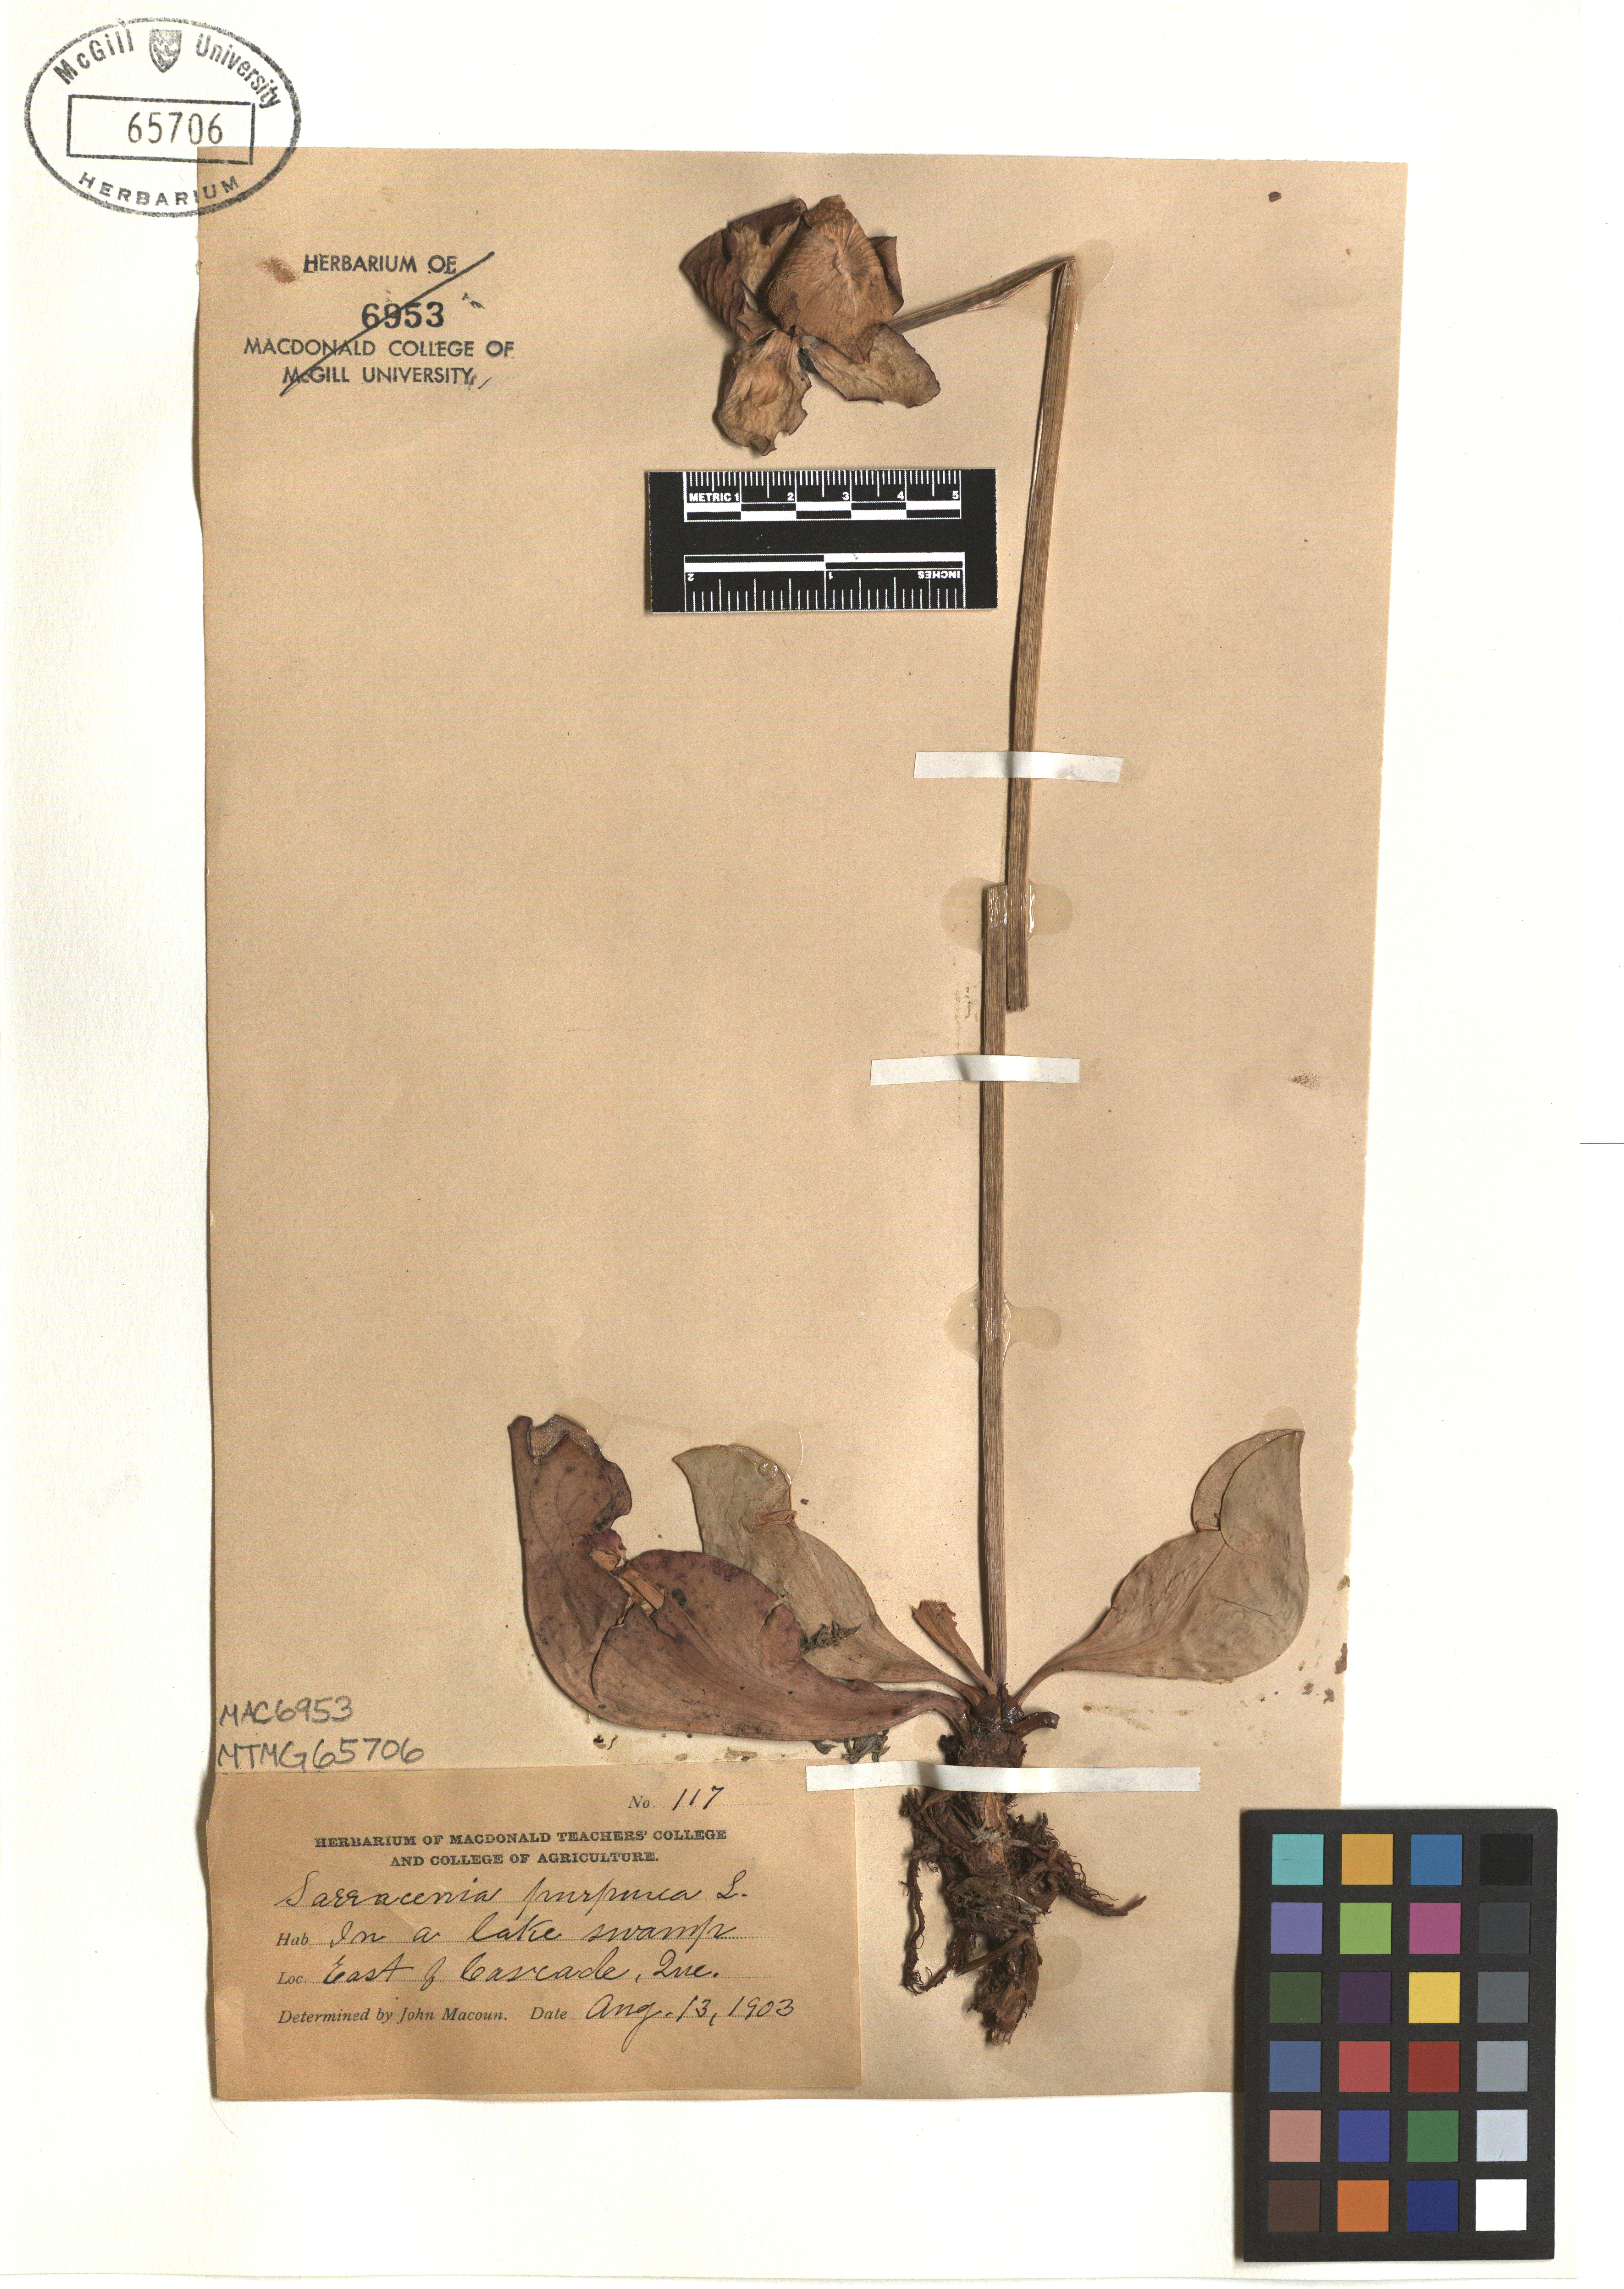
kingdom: Plantae
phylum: Tracheophyta
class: Magnoliopsida
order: Ericales
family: Sarraceniaceae
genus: Sarracenia
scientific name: Sarracenia purpurea
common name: Pitcherplant
